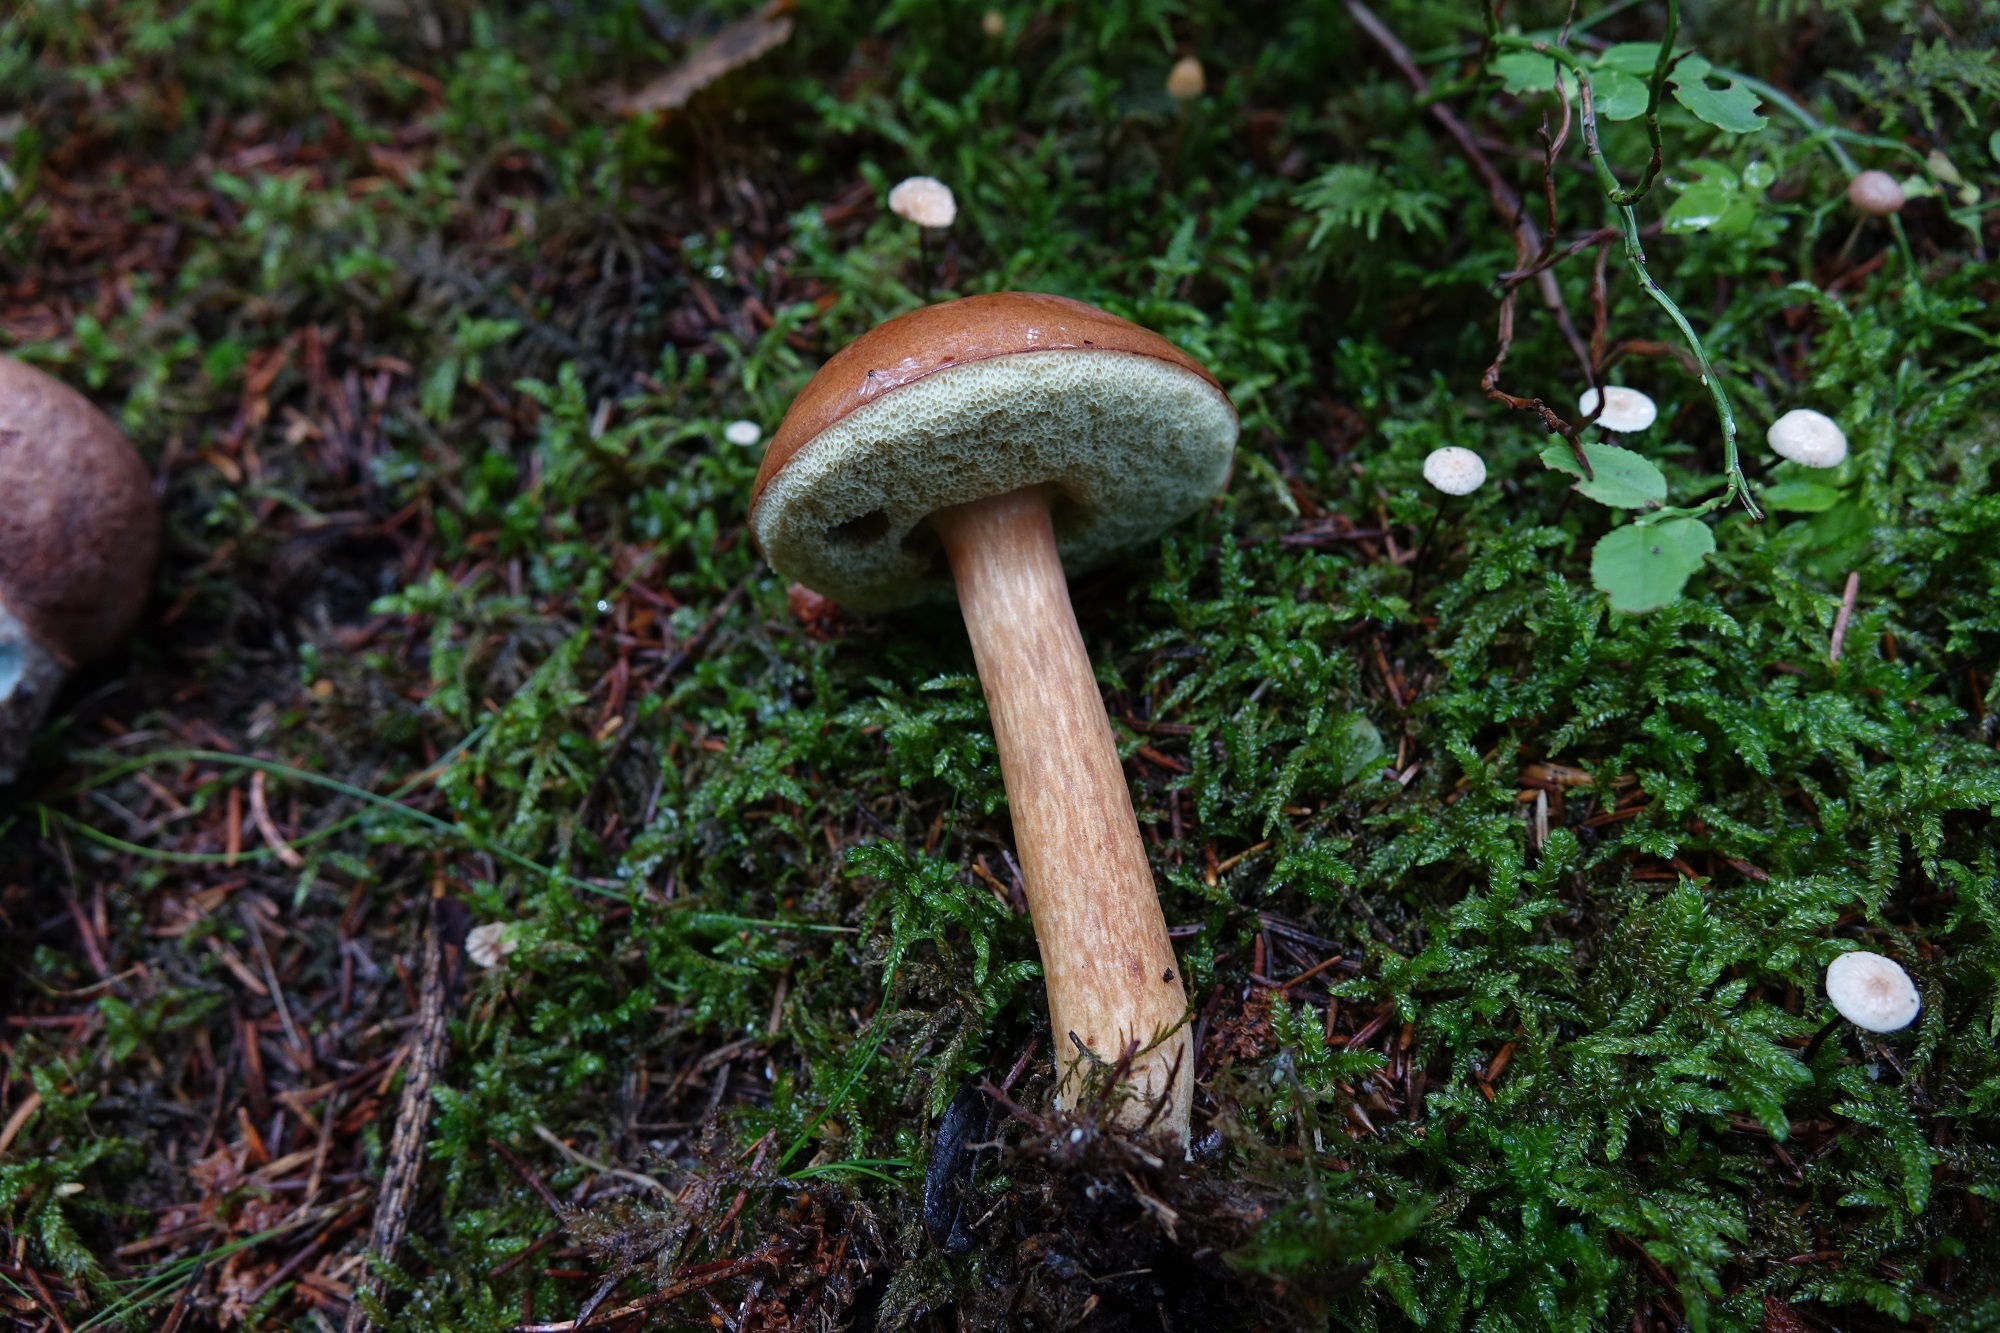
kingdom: Fungi
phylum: Basidiomycota
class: Agaricomycetes
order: Boletales
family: Boletaceae
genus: Imleria
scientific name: Imleria badia
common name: Bay bolete
